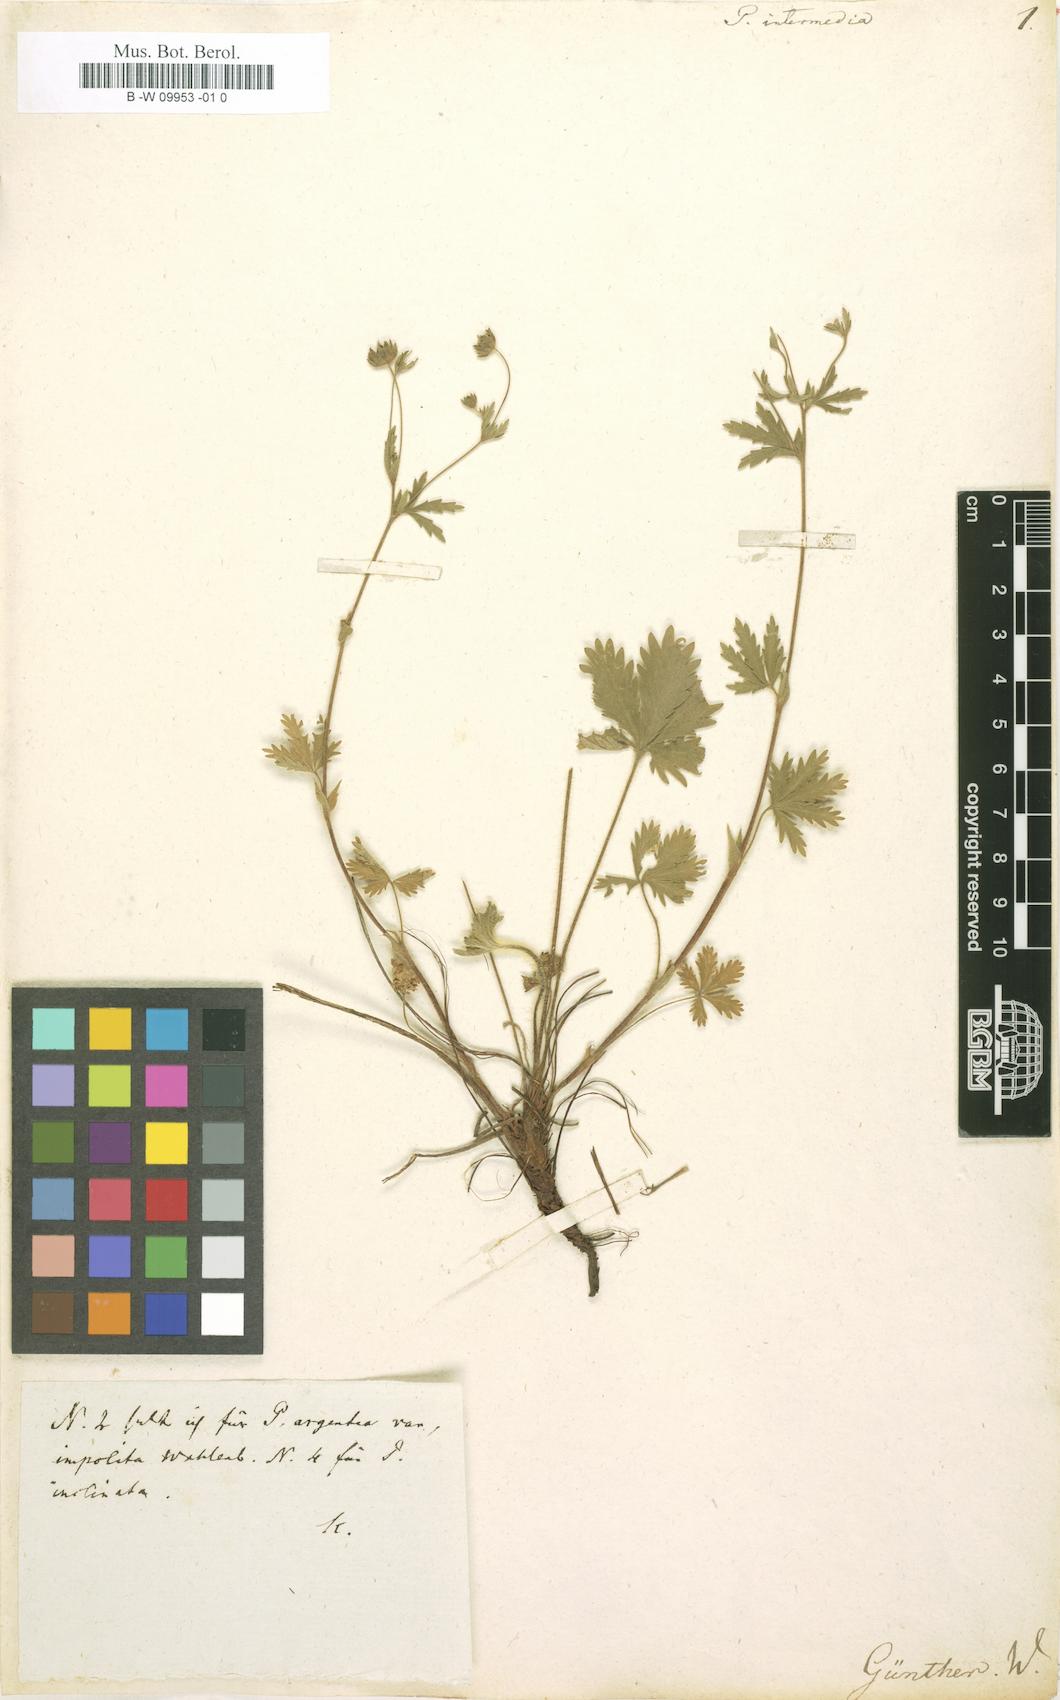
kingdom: Plantae
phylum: Tracheophyta
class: Magnoliopsida
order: Rosales
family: Rosaceae
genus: Potentilla
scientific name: Potentilla intermedia
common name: Downy cinquefoil
